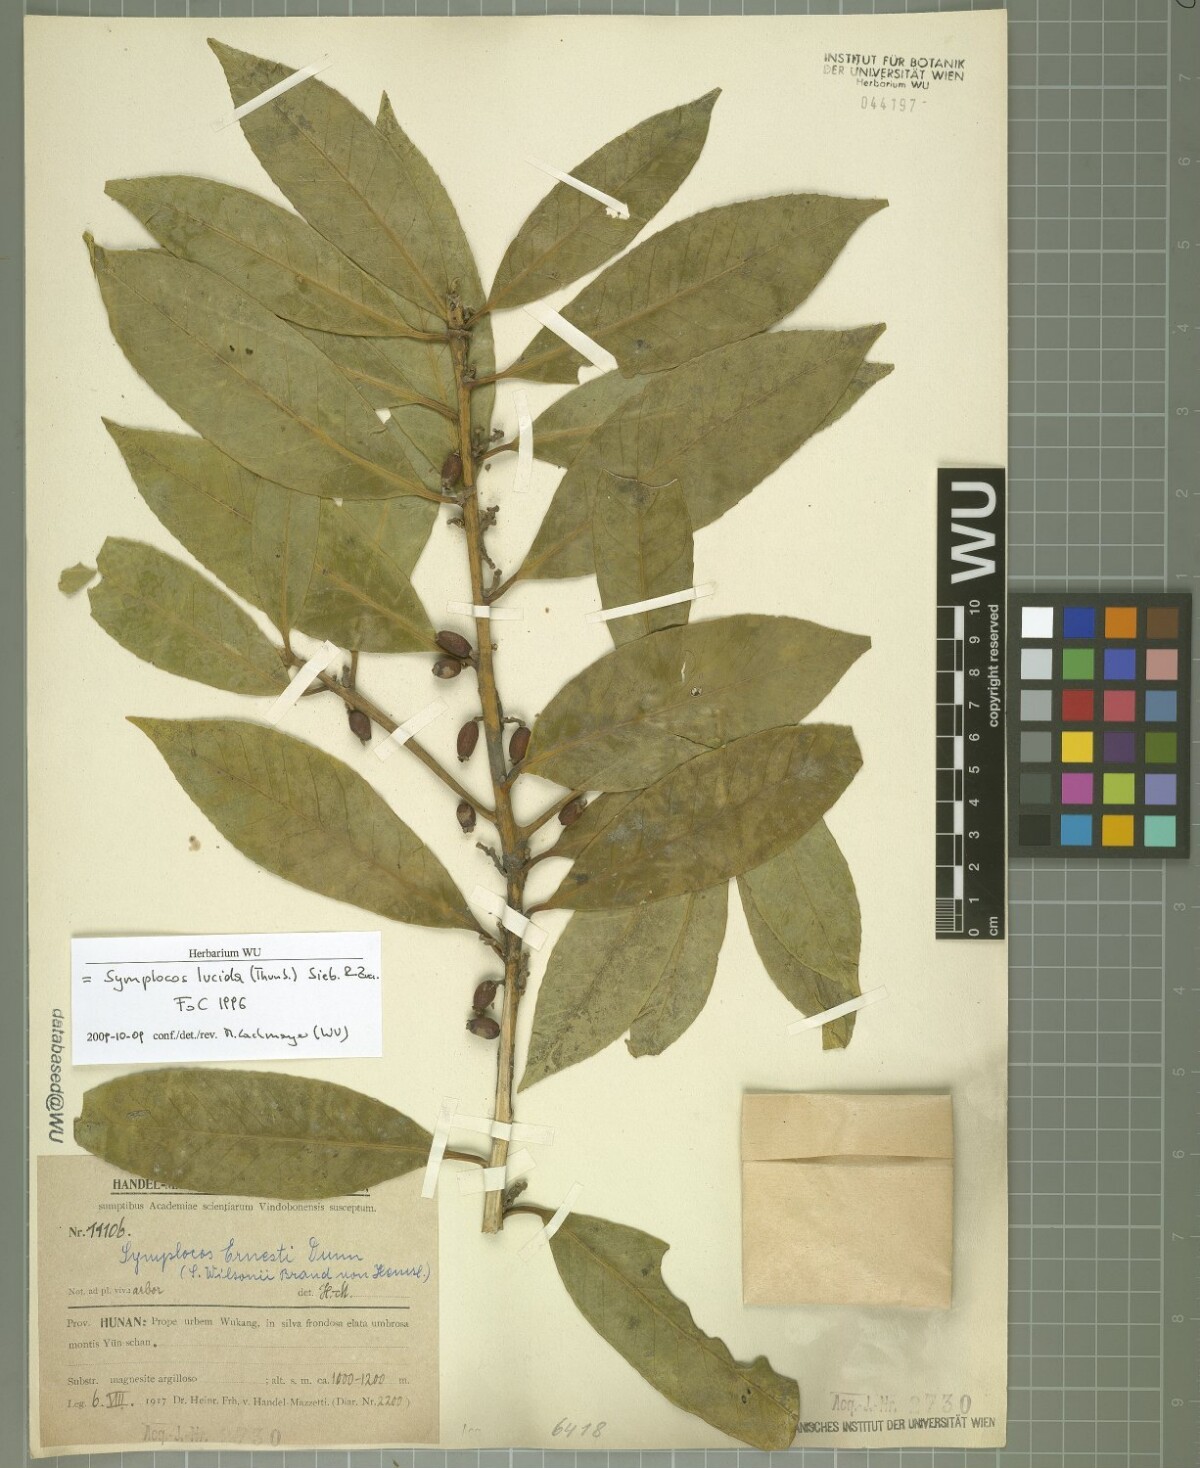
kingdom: Plantae
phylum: Tracheophyta
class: Magnoliopsida
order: Ericales
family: Symplocaceae
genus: Symplocos
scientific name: Symplocos nakaharae
